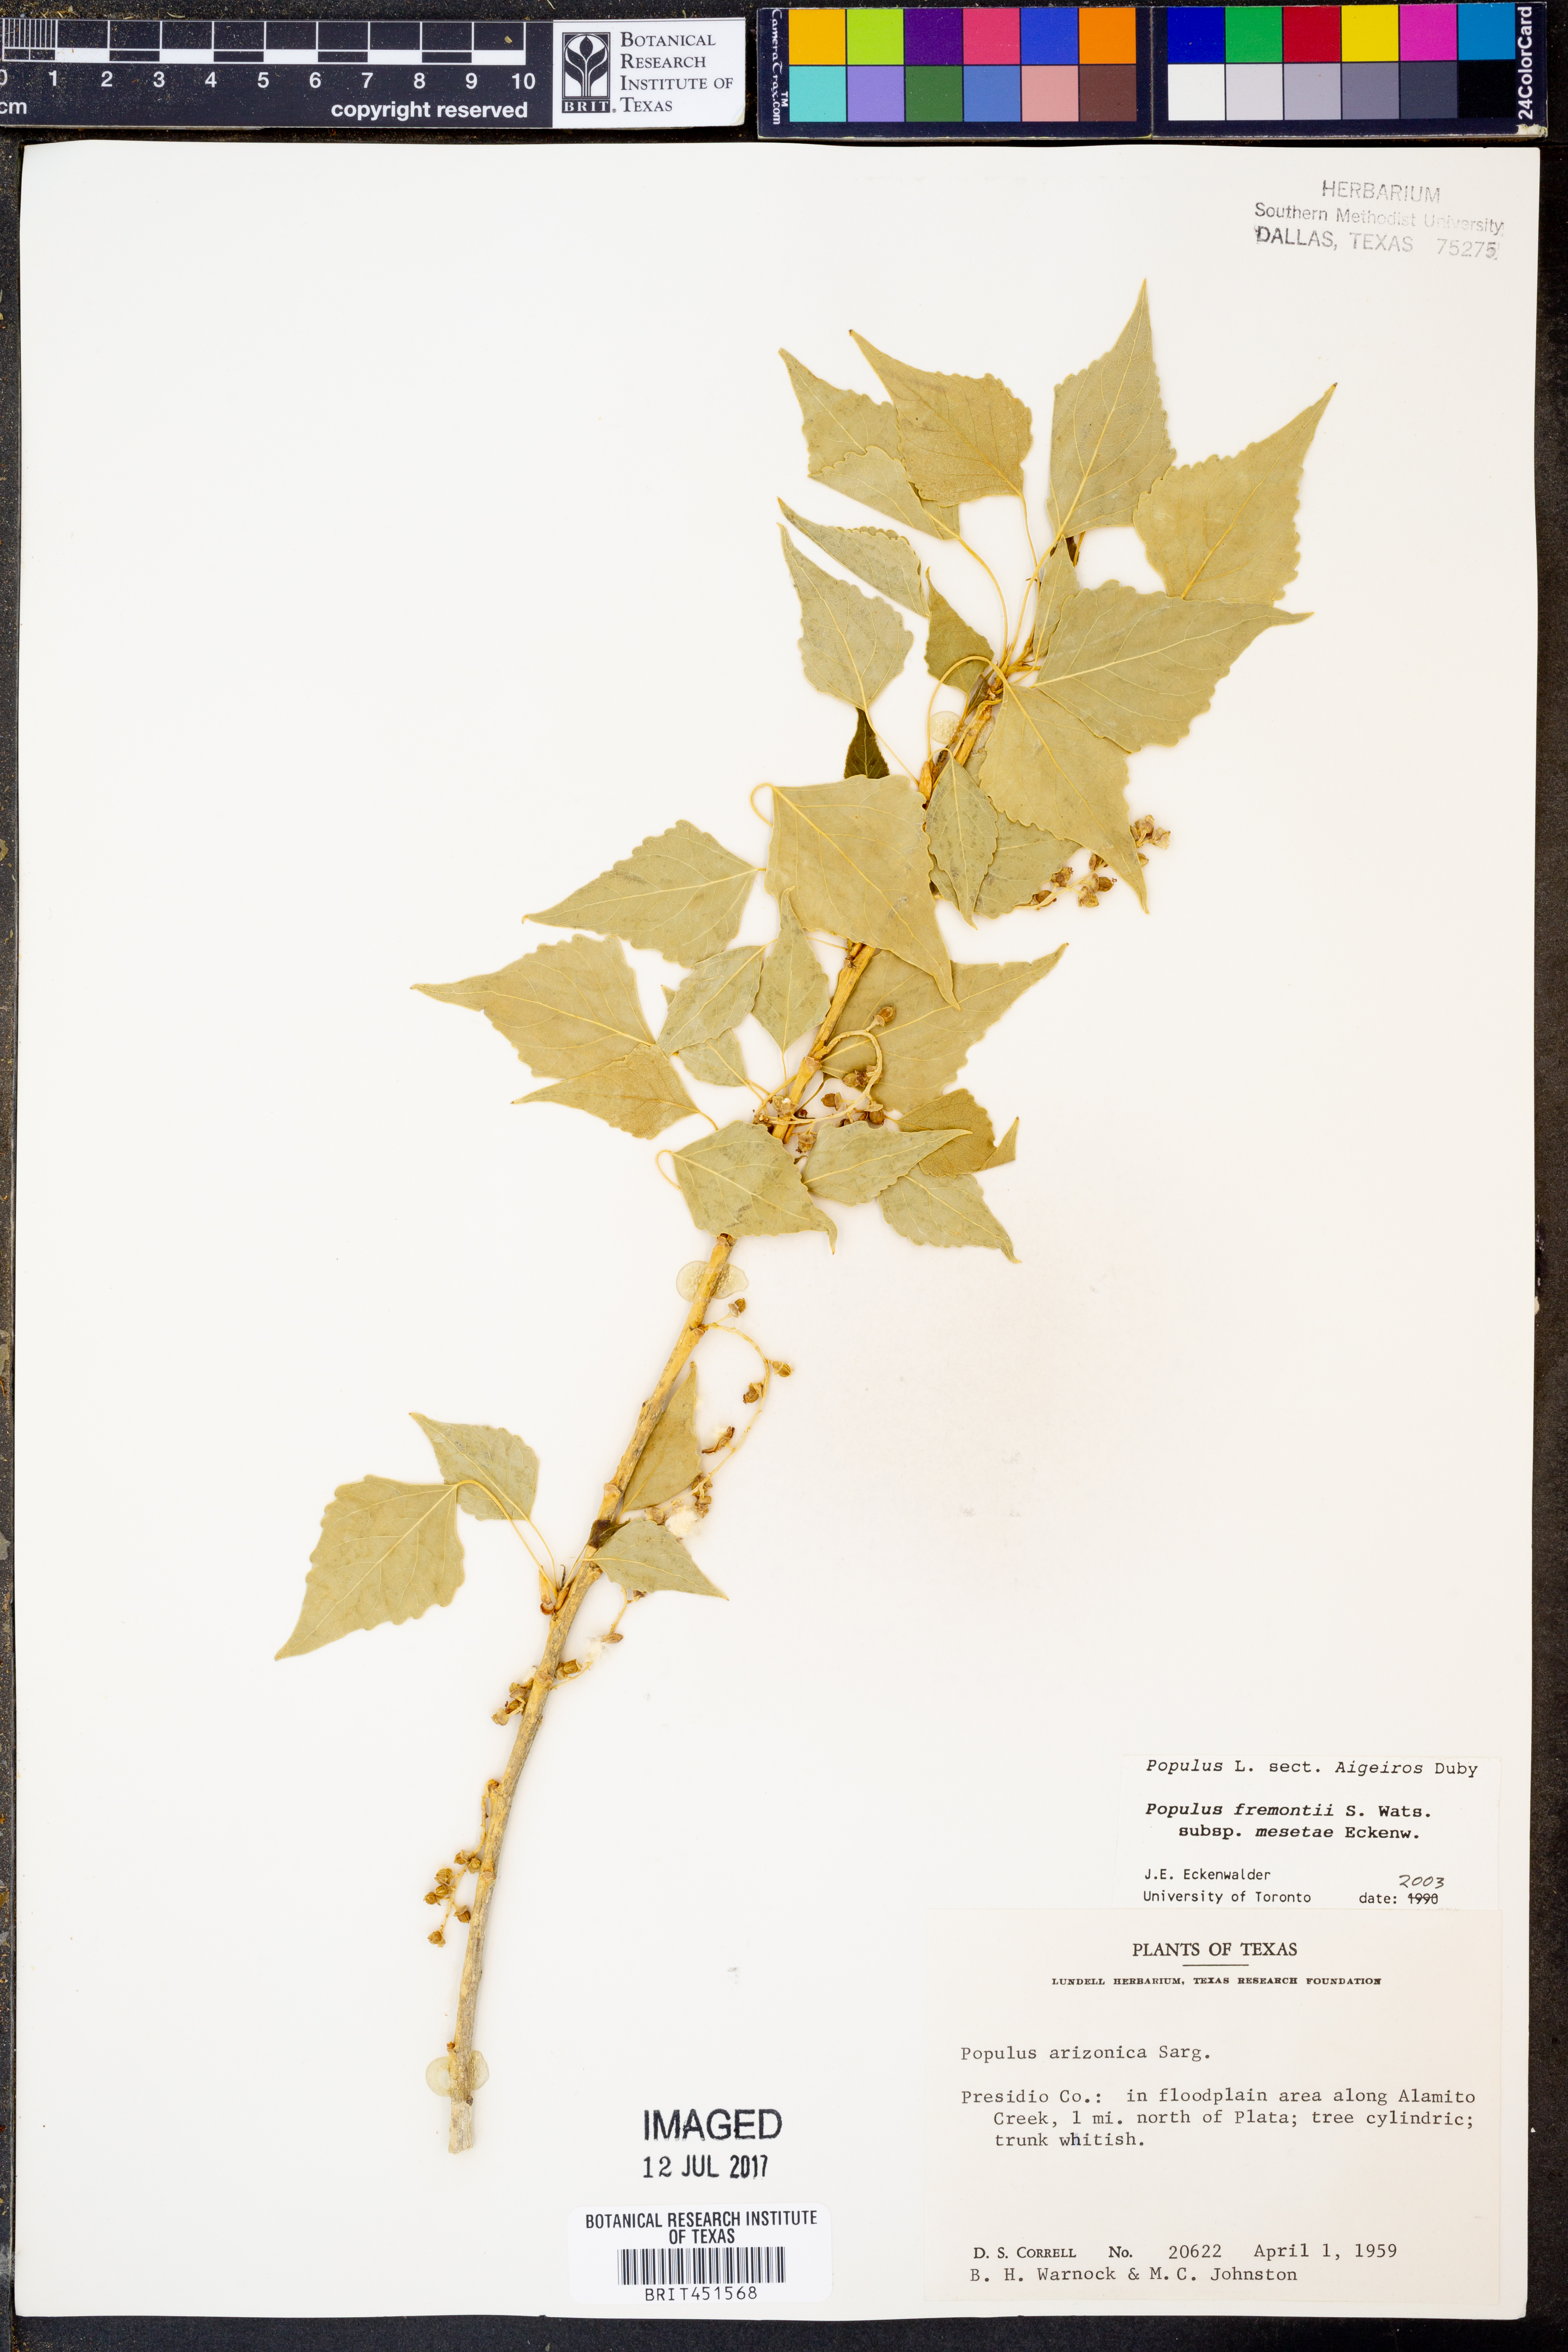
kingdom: Plantae
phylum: Tracheophyta
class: Magnoliopsida
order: Malpighiales
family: Salicaceae
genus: Populus
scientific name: Populus fremontii
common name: Fremont's cottonwood
